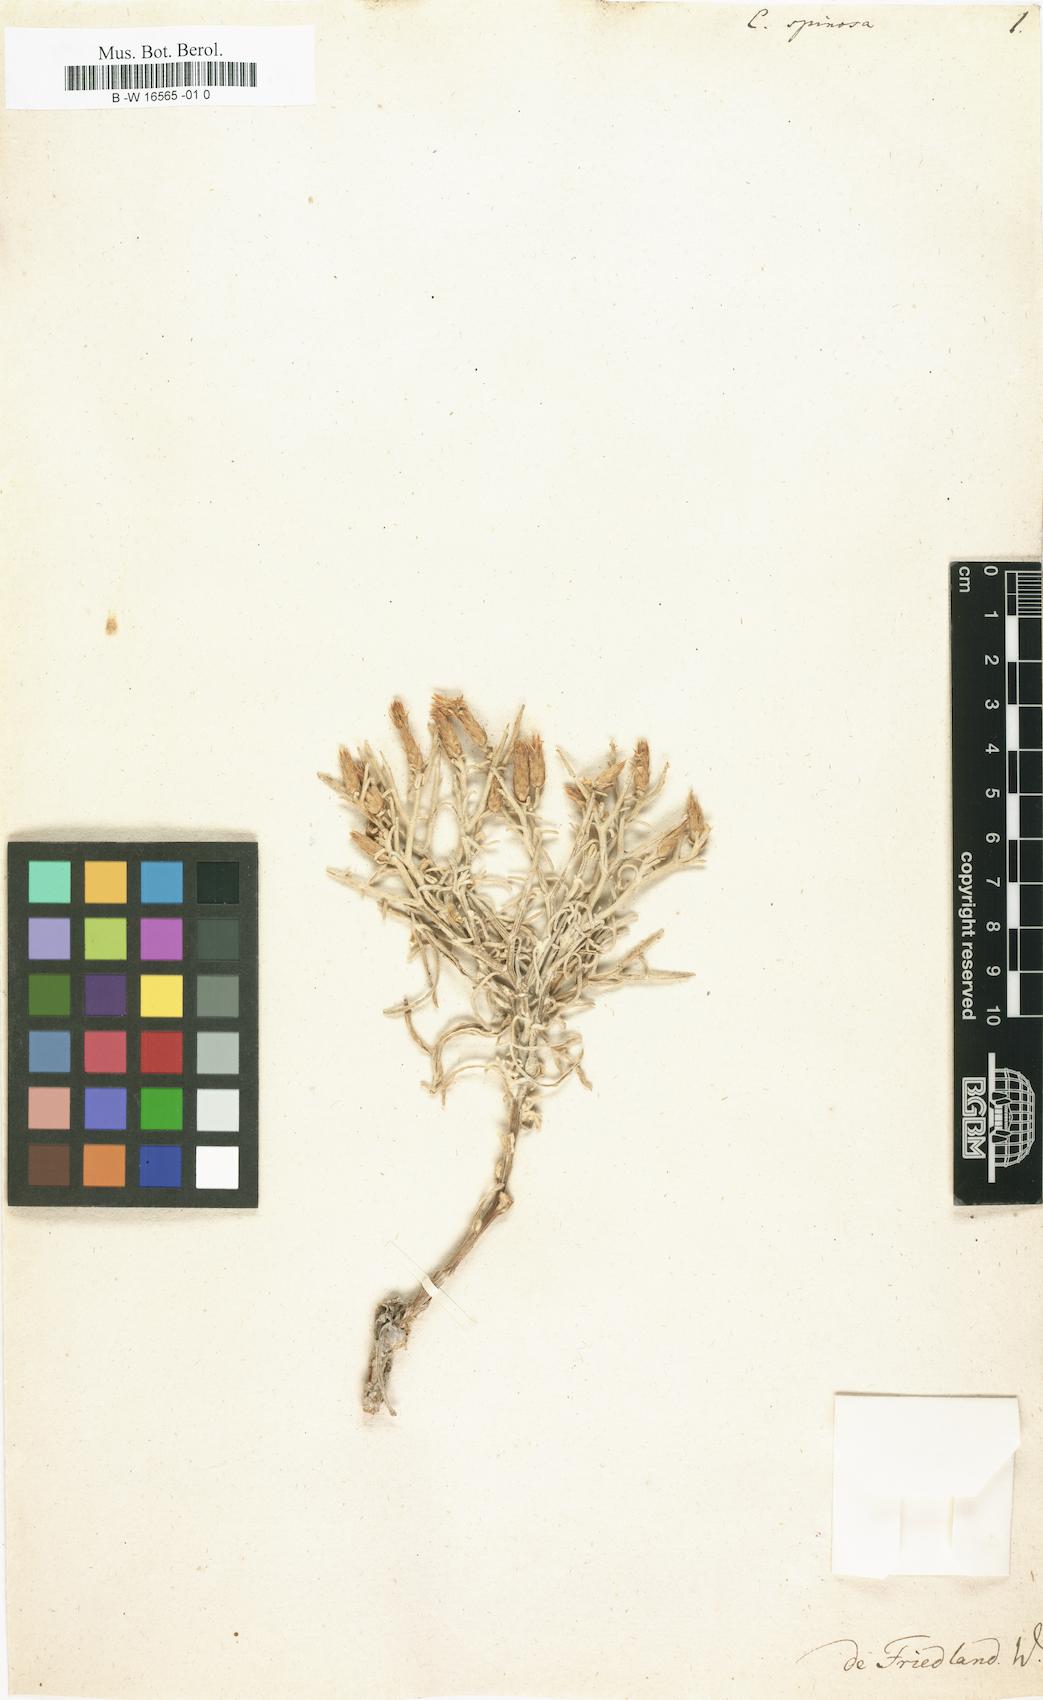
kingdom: Plantae
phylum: Tracheophyta
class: Magnoliopsida
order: Asterales
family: Asteraceae
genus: Centaurea
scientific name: Centaurea spinosa
